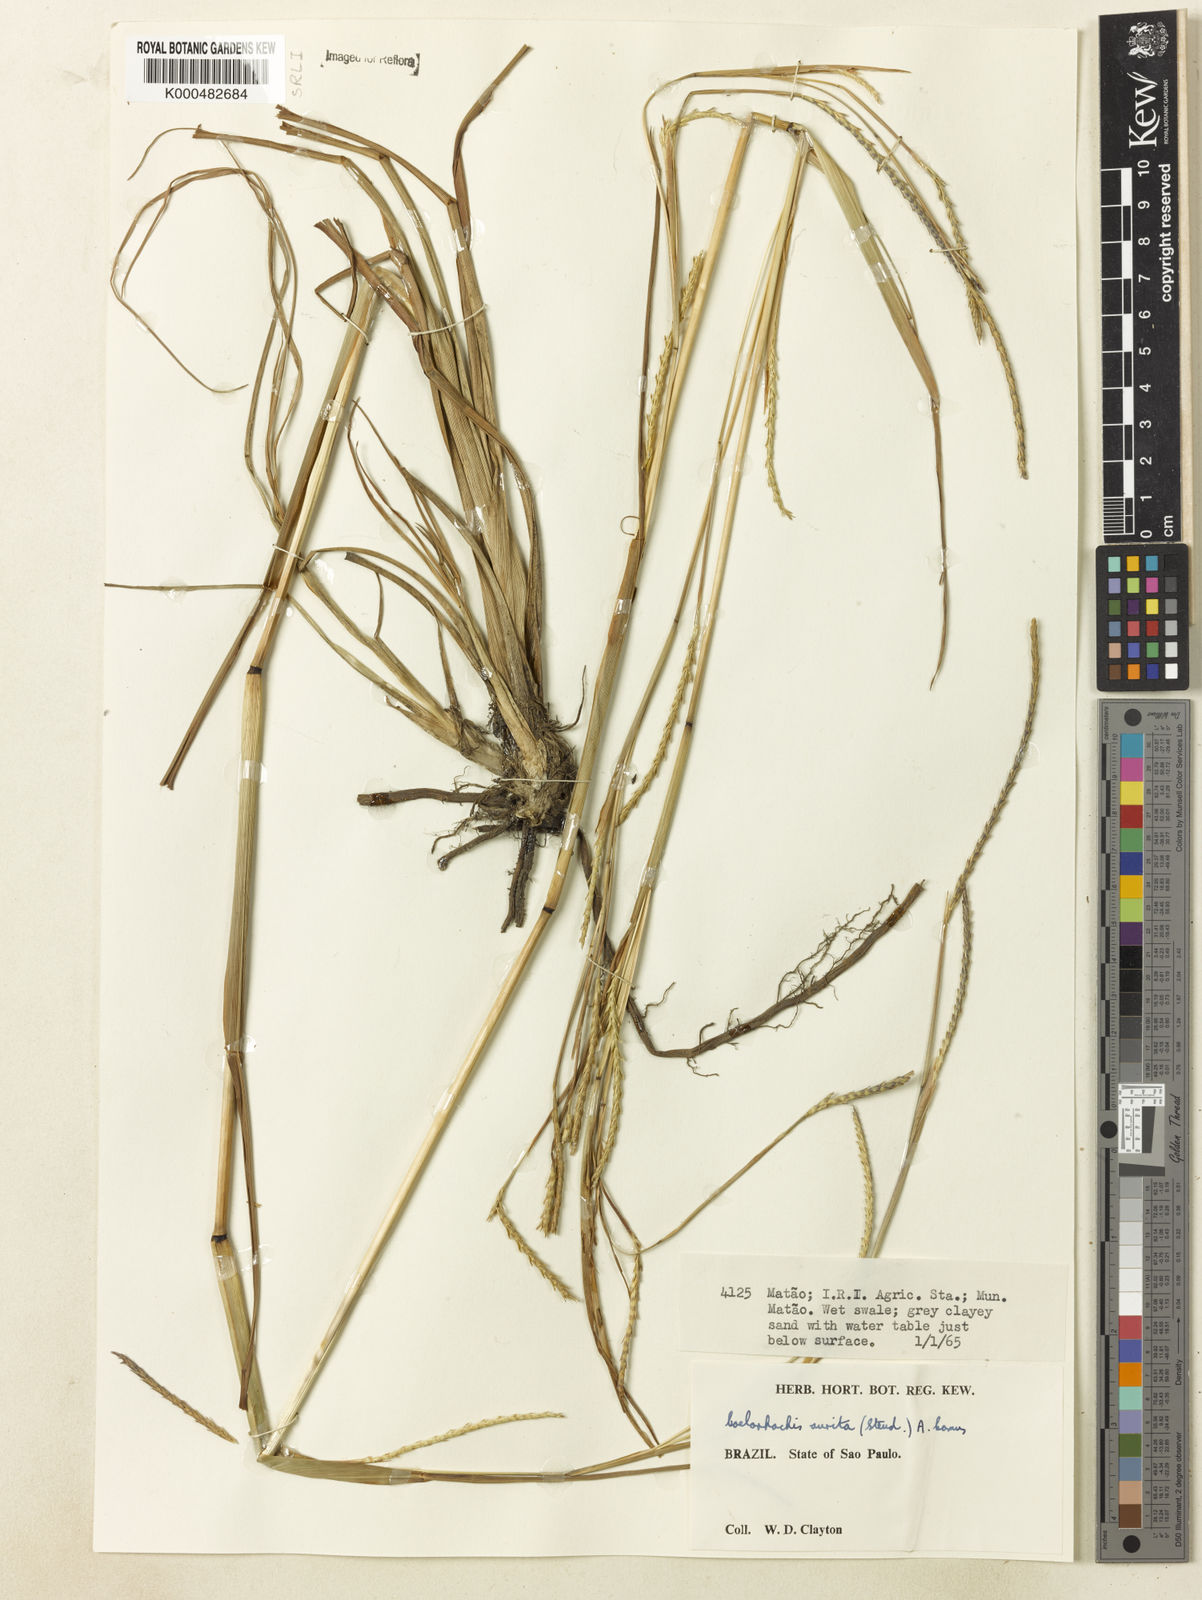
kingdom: Plantae
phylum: Tracheophyta
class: Liliopsida
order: Poales
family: Poaceae
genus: Rottboellia
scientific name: Rottboellia aurita
